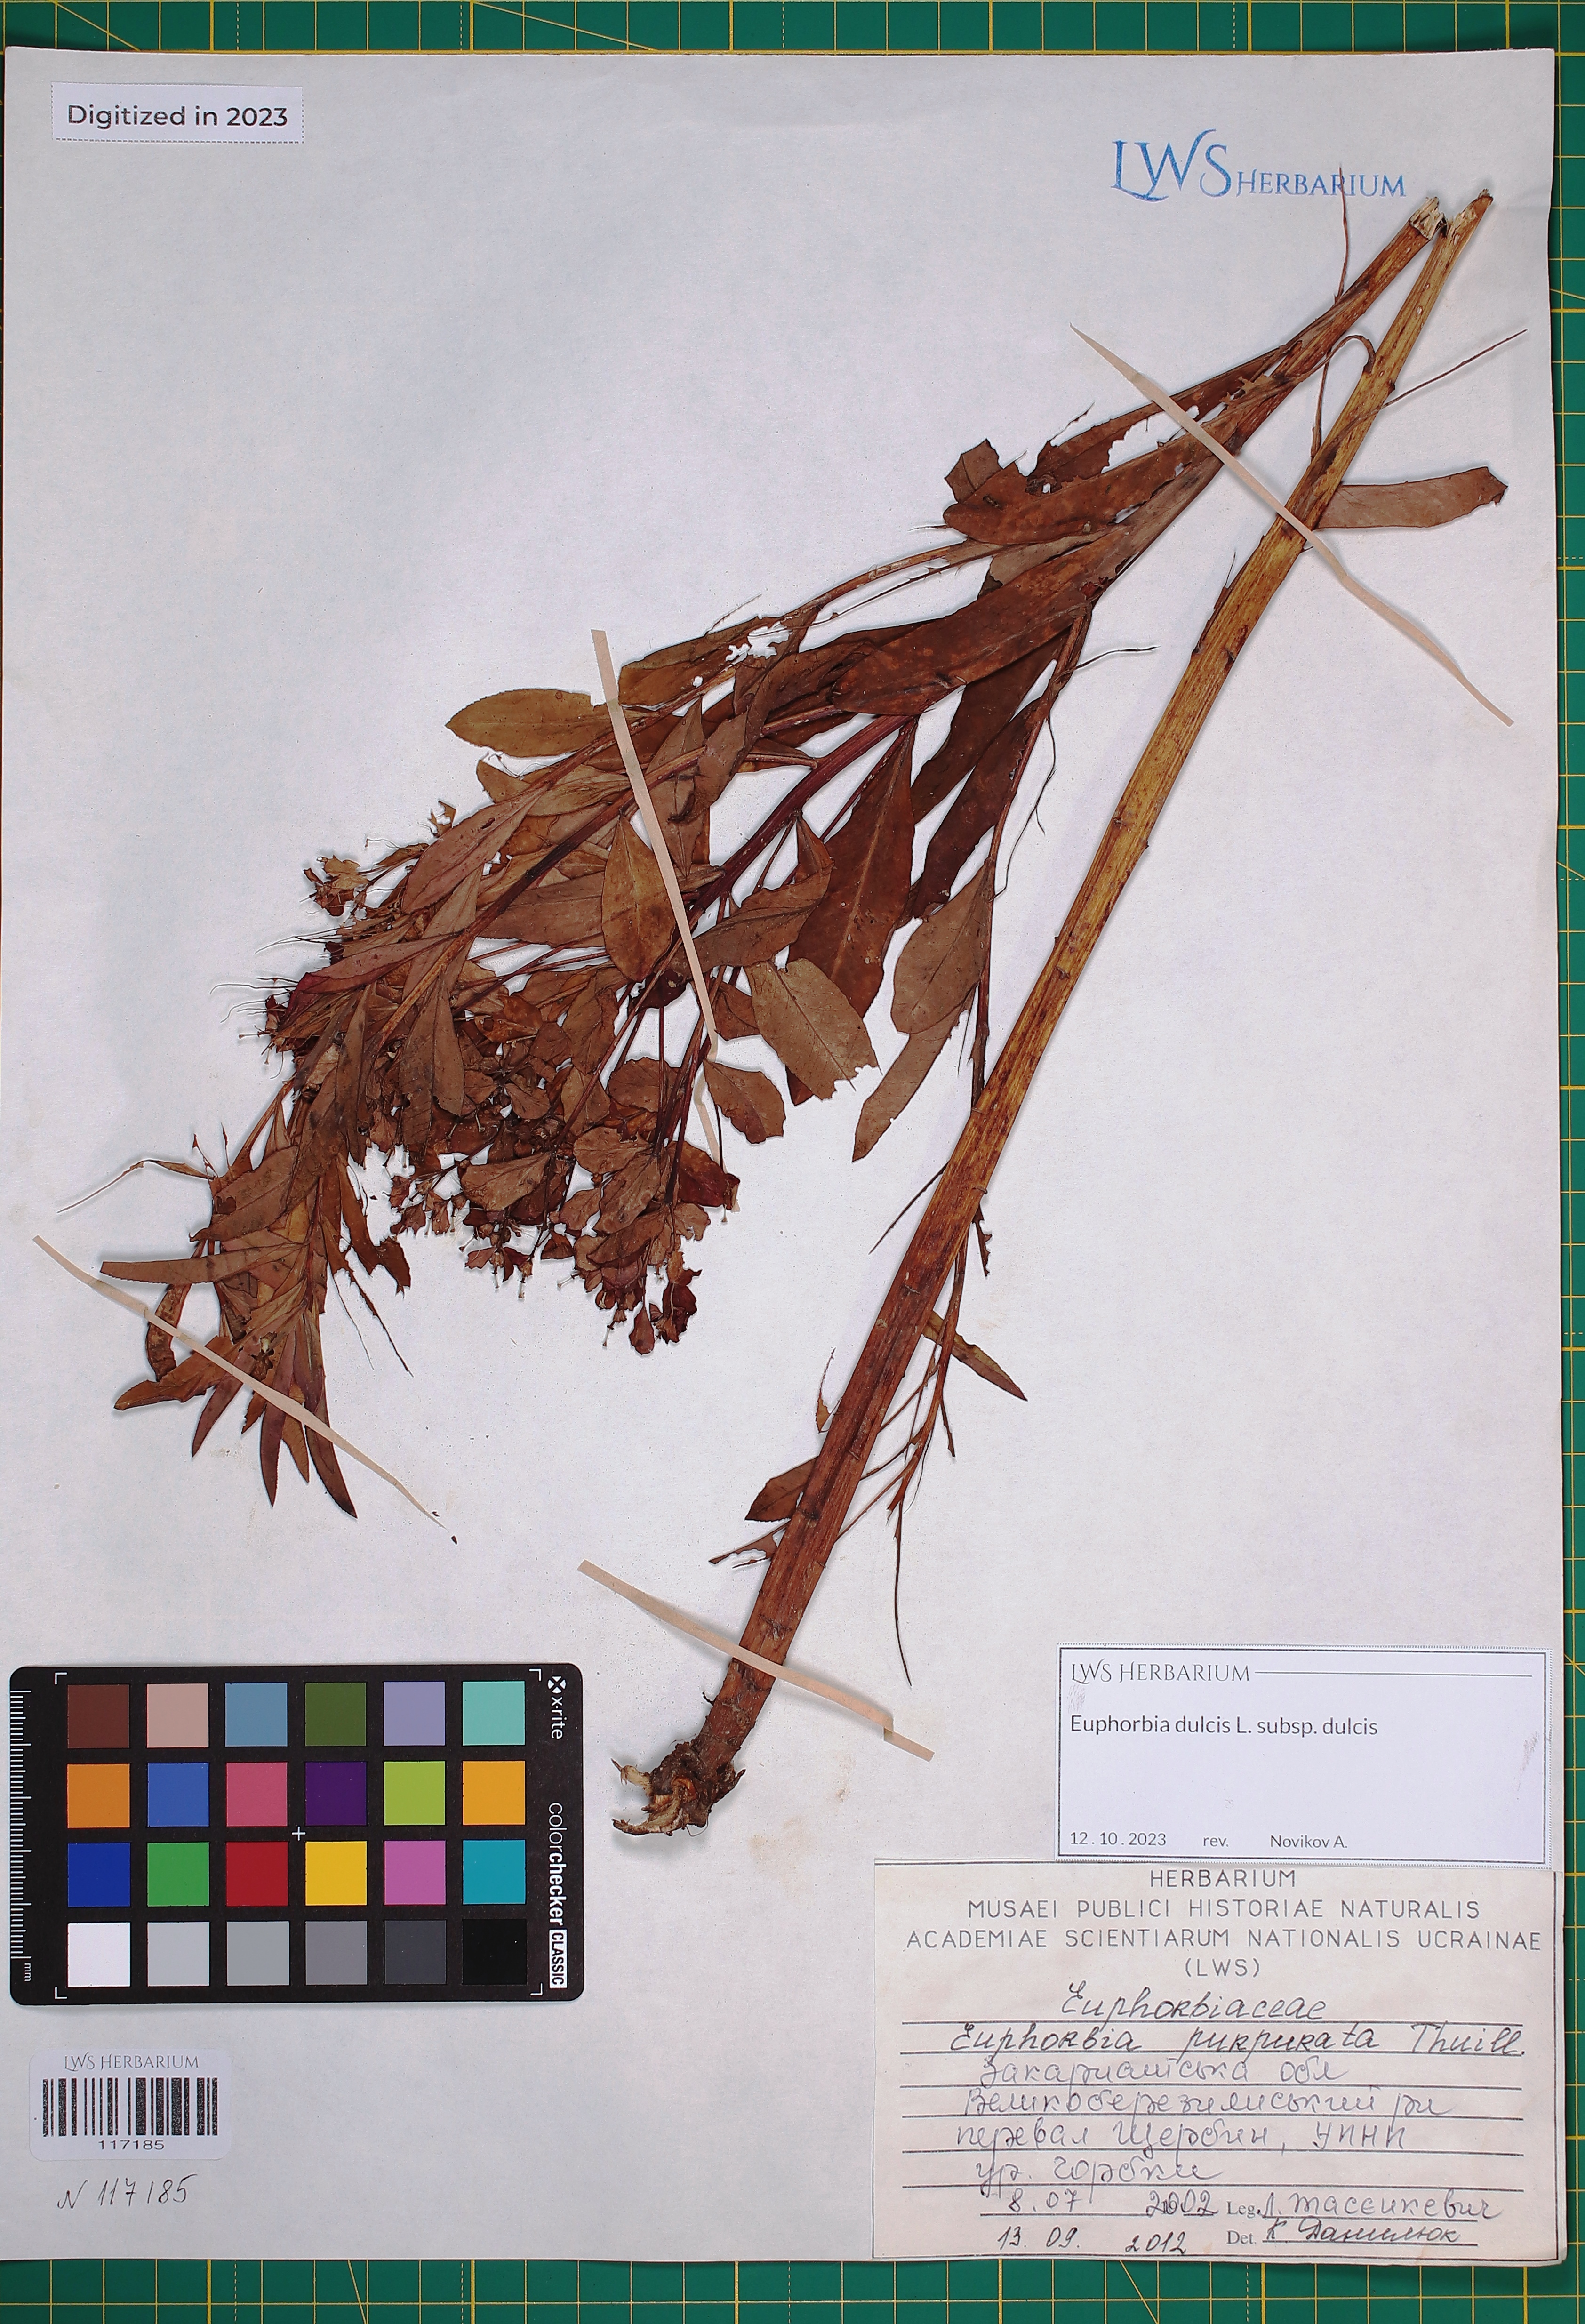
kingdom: Plantae
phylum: Tracheophyta
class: Magnoliopsida
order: Malpighiales
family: Euphorbiaceae
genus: Euphorbia
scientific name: Euphorbia dulcis
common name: Sweet spurge
